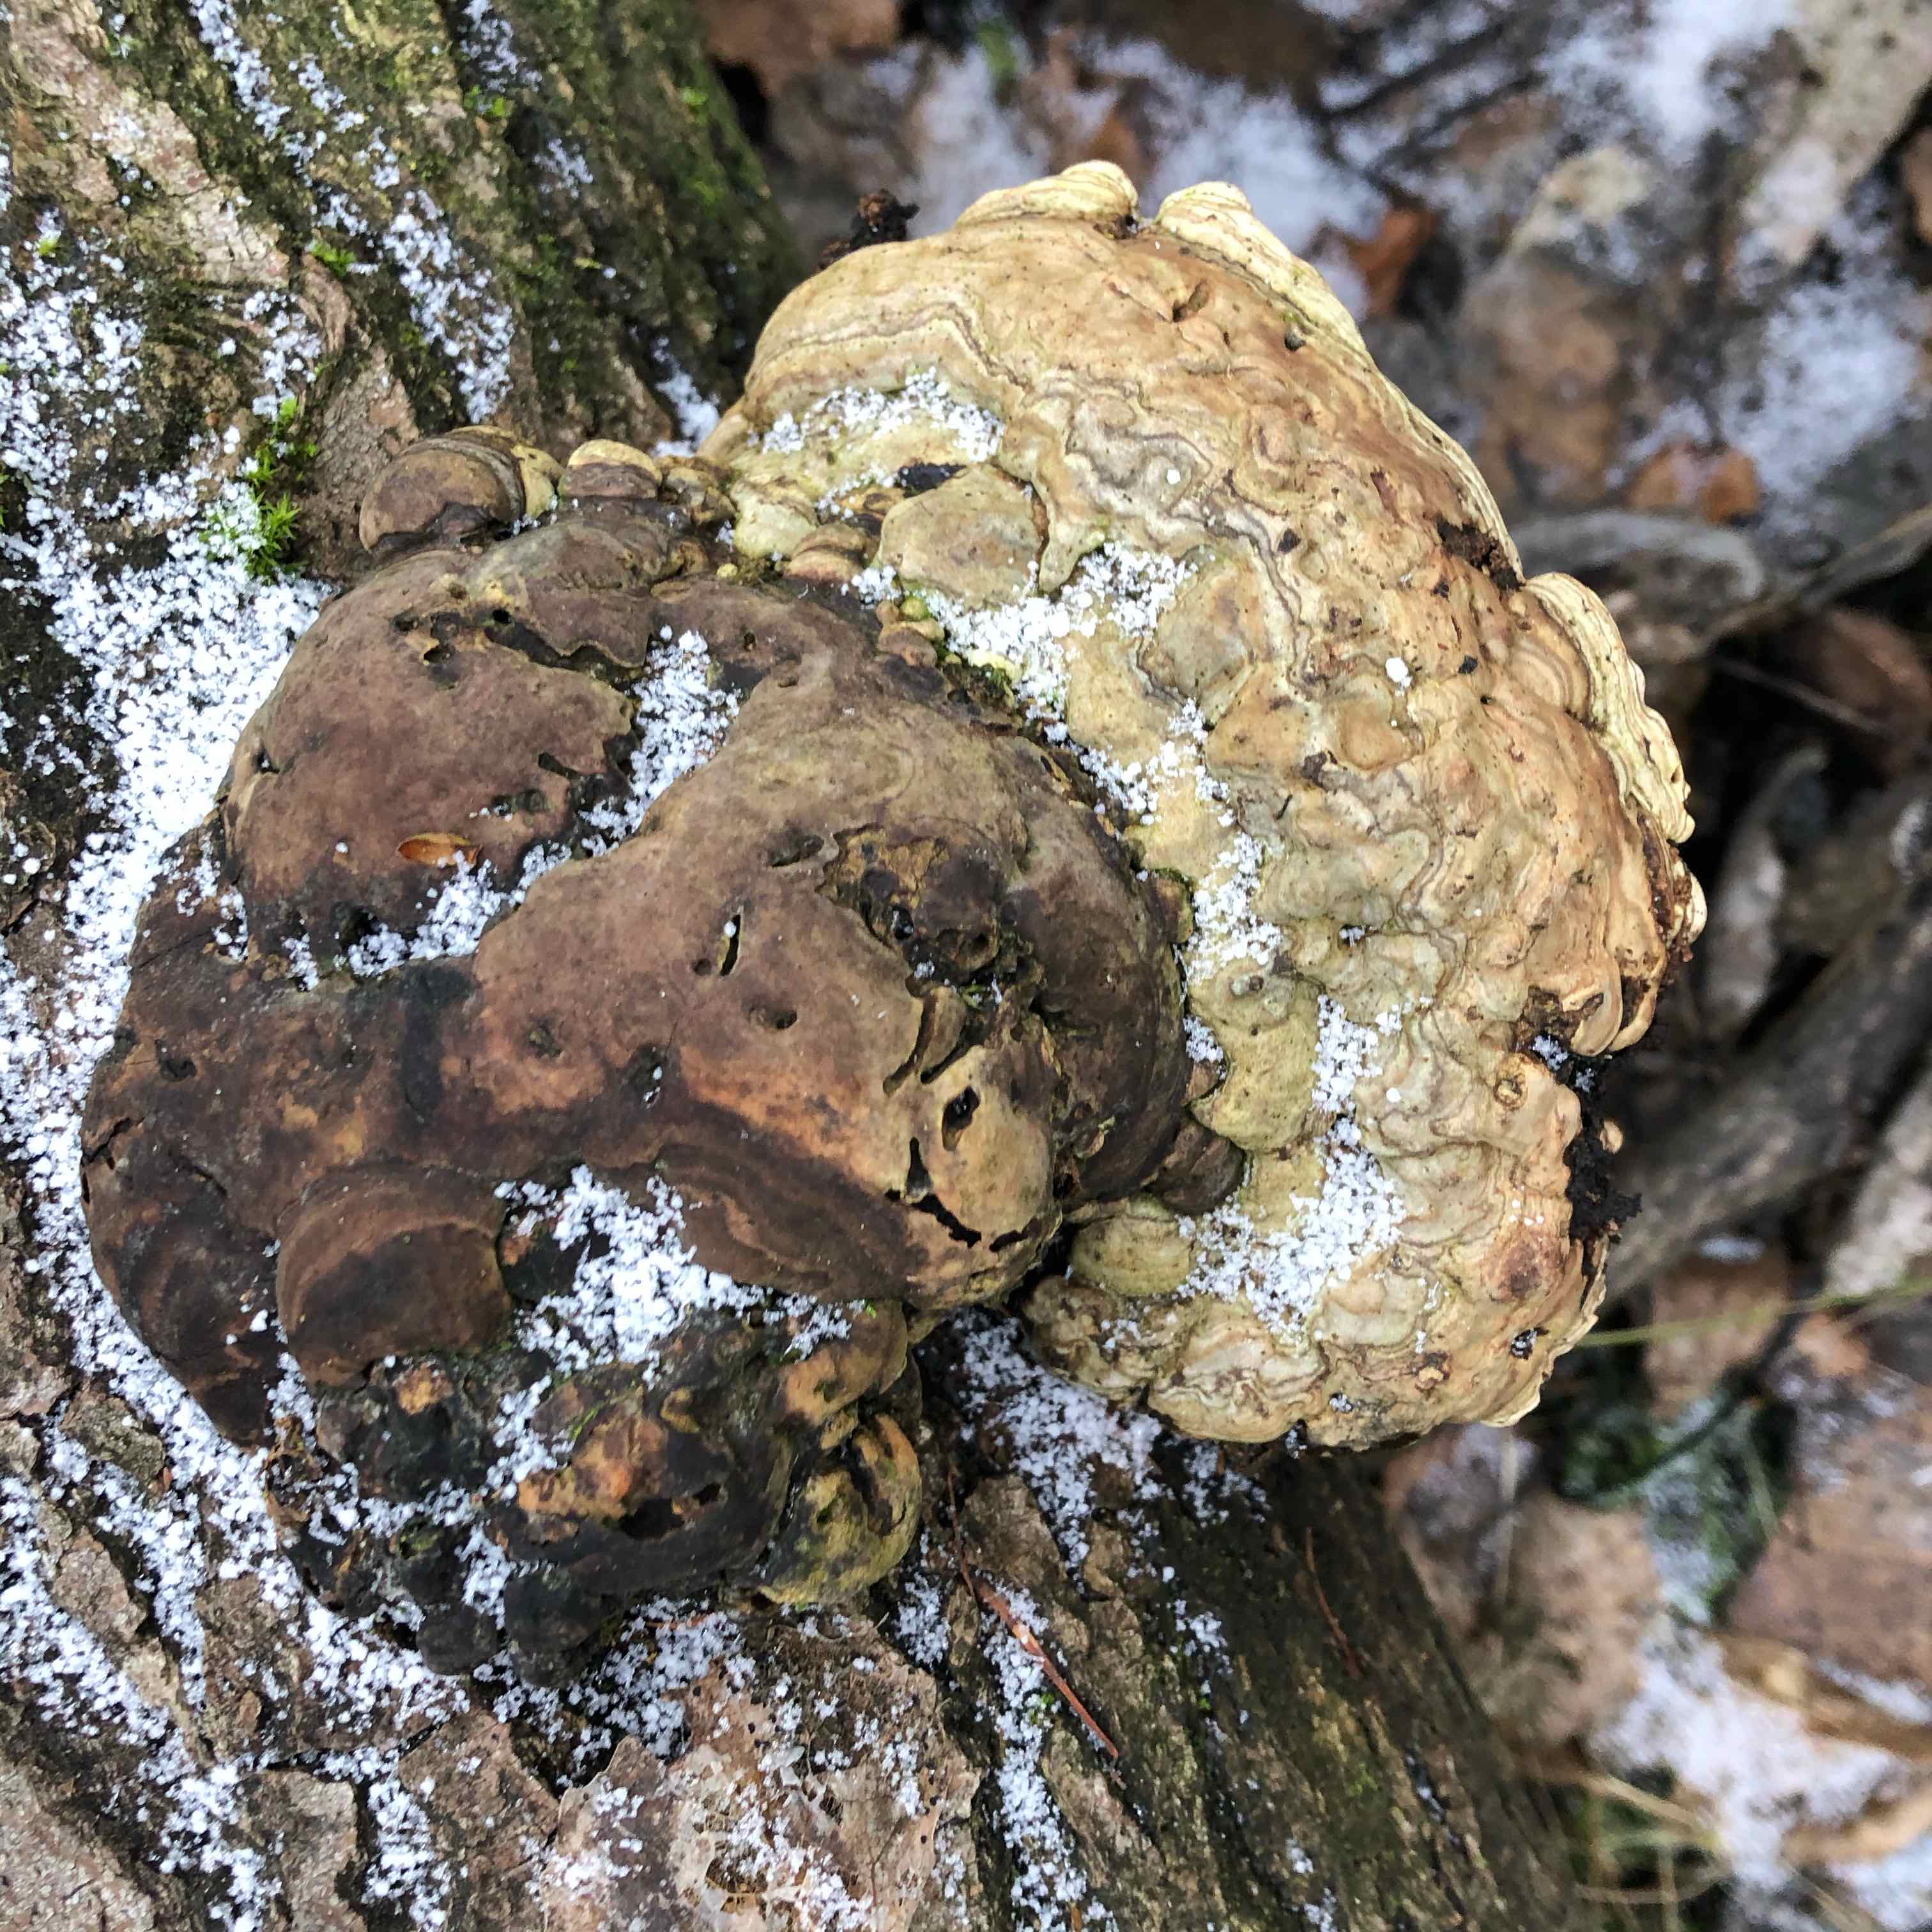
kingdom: Fungi
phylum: Basidiomycota
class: Agaricomycetes
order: Polyporales
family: Polyporaceae
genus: Fomes
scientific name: Fomes fomentarius
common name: tøndersvamp
